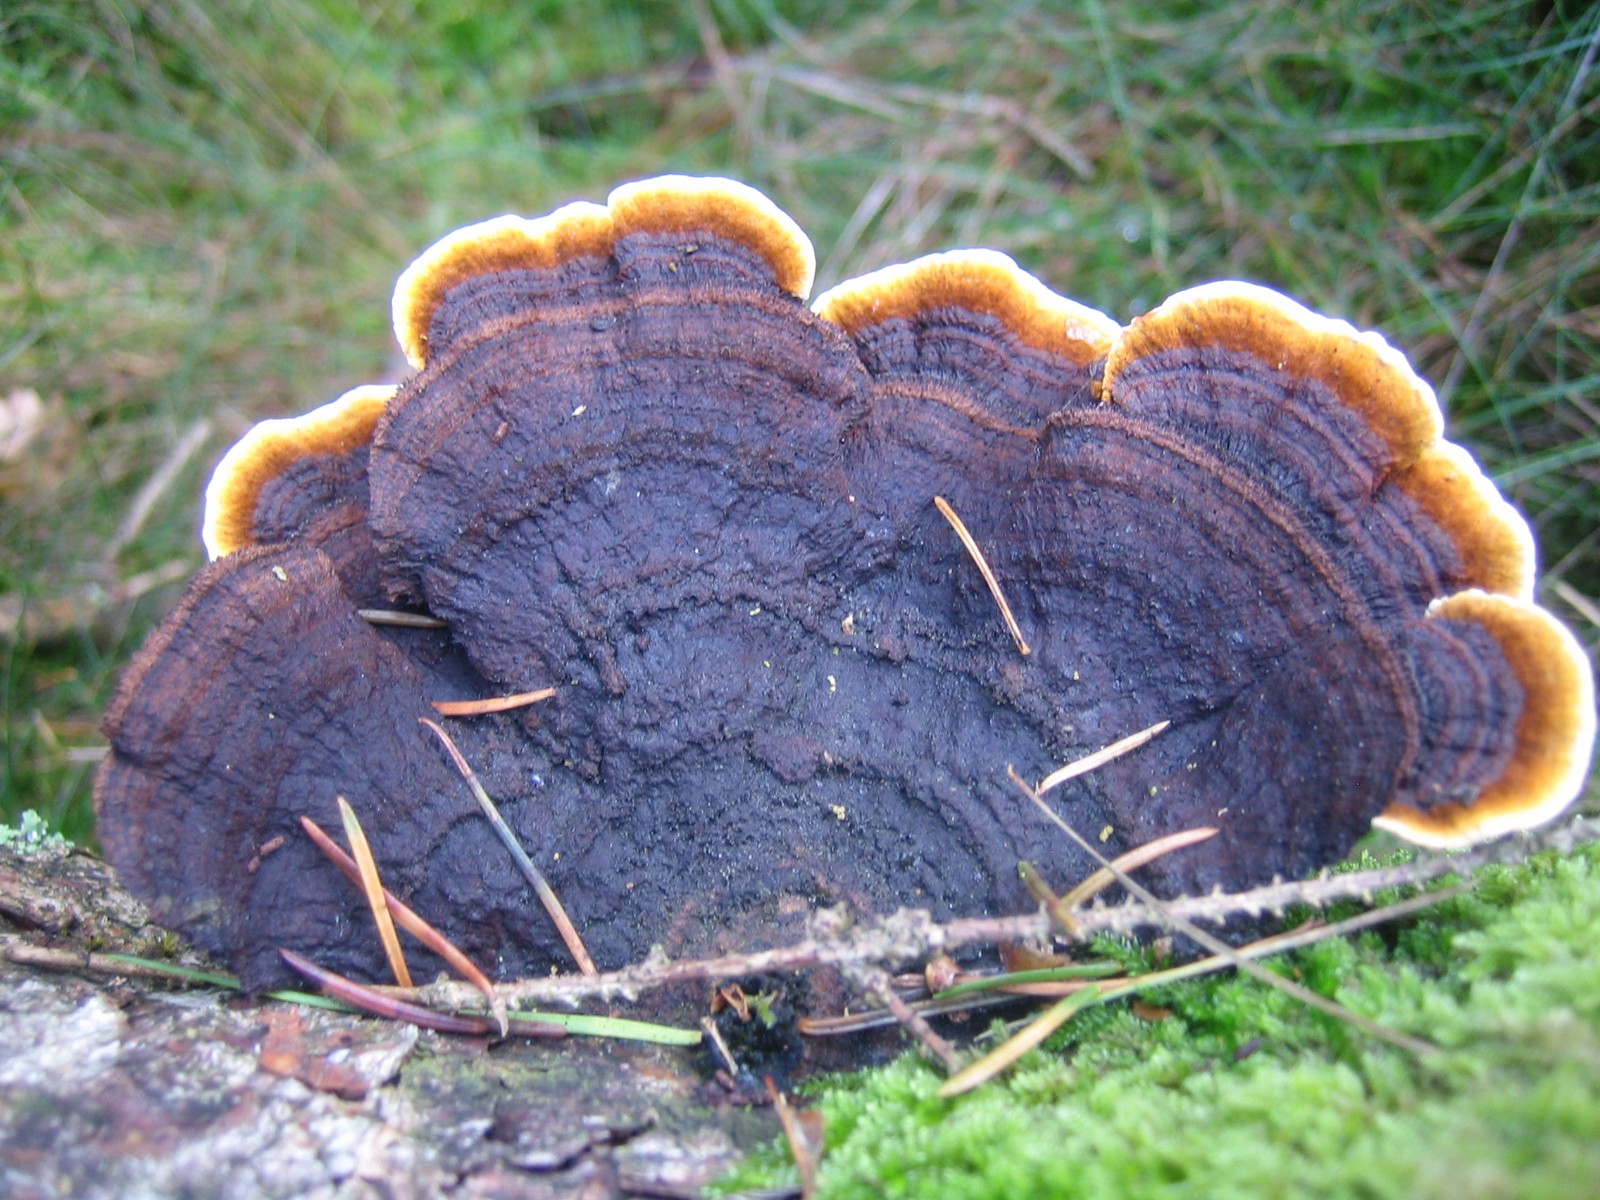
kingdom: Fungi
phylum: Basidiomycota
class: Agaricomycetes
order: Gloeophyllales
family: Gloeophyllaceae
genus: Gloeophyllum
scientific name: Gloeophyllum sepiarium
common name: fyrre-korkhat
